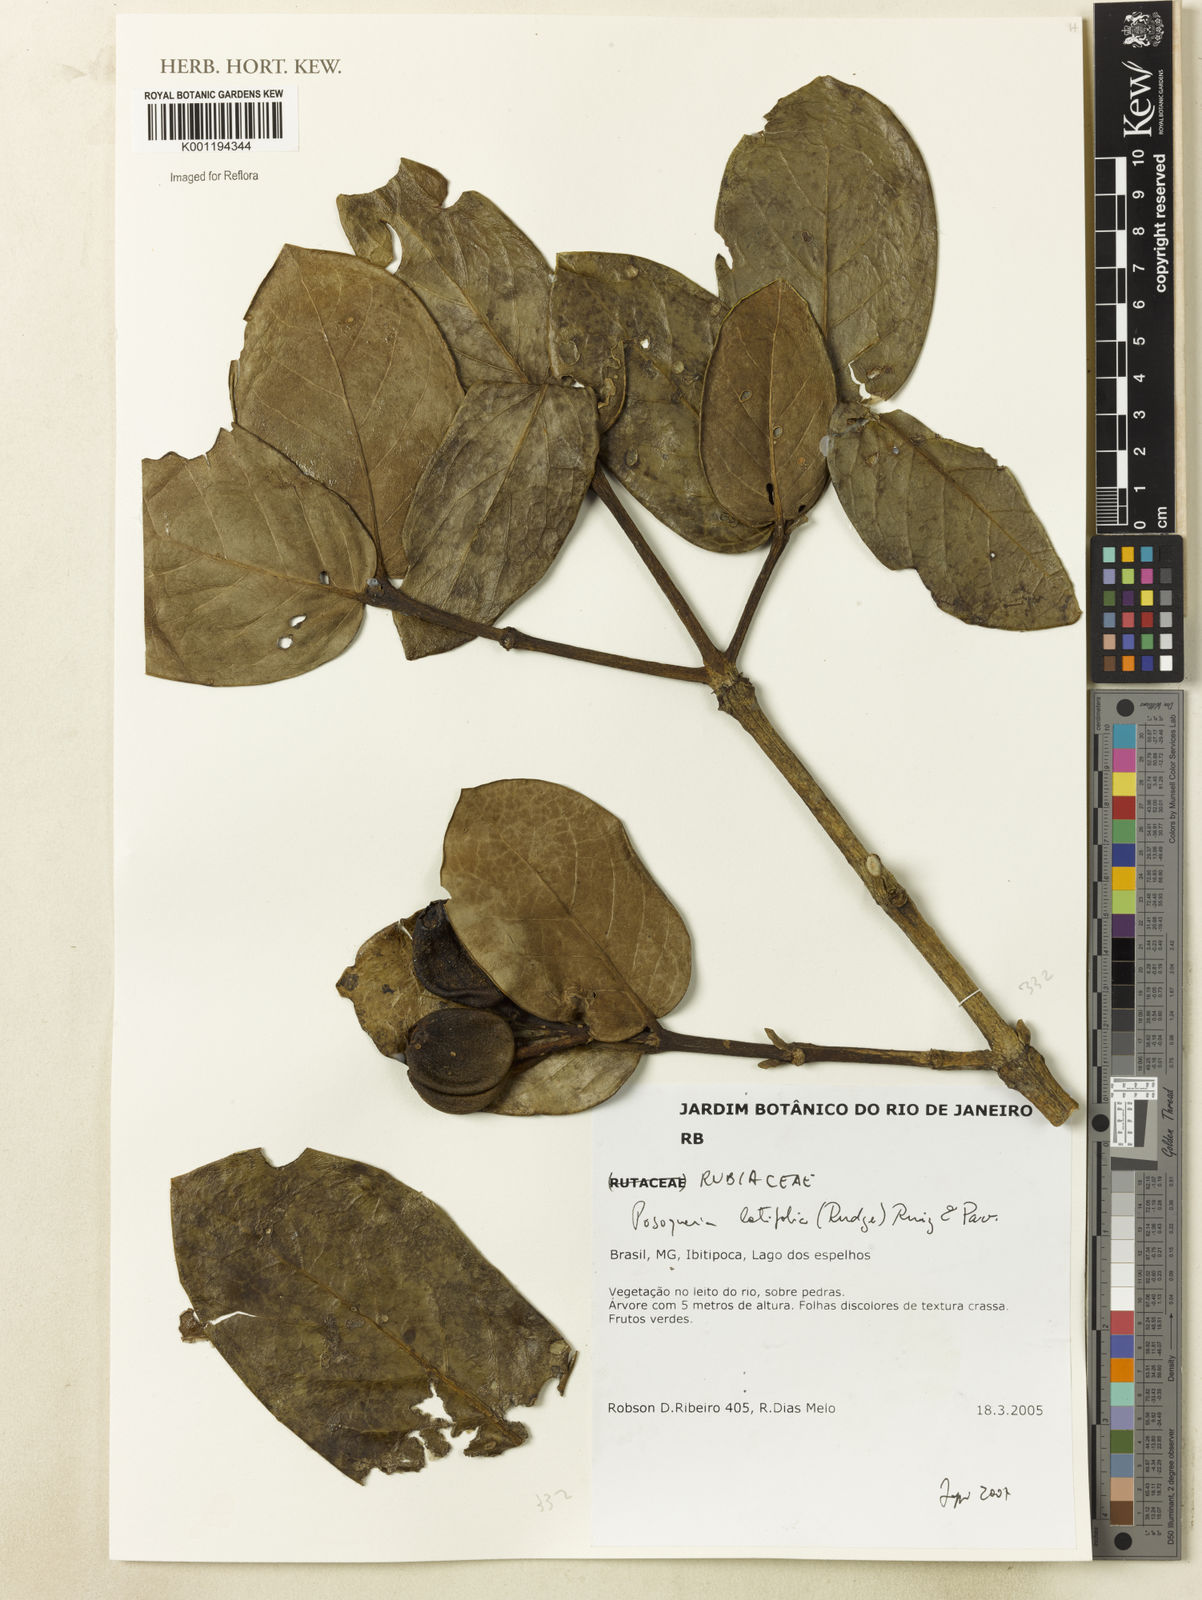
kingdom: Plantae
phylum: Tracheophyta
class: Magnoliopsida
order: Gentianales
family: Rubiaceae
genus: Posoqueria
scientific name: Posoqueria latifolia
